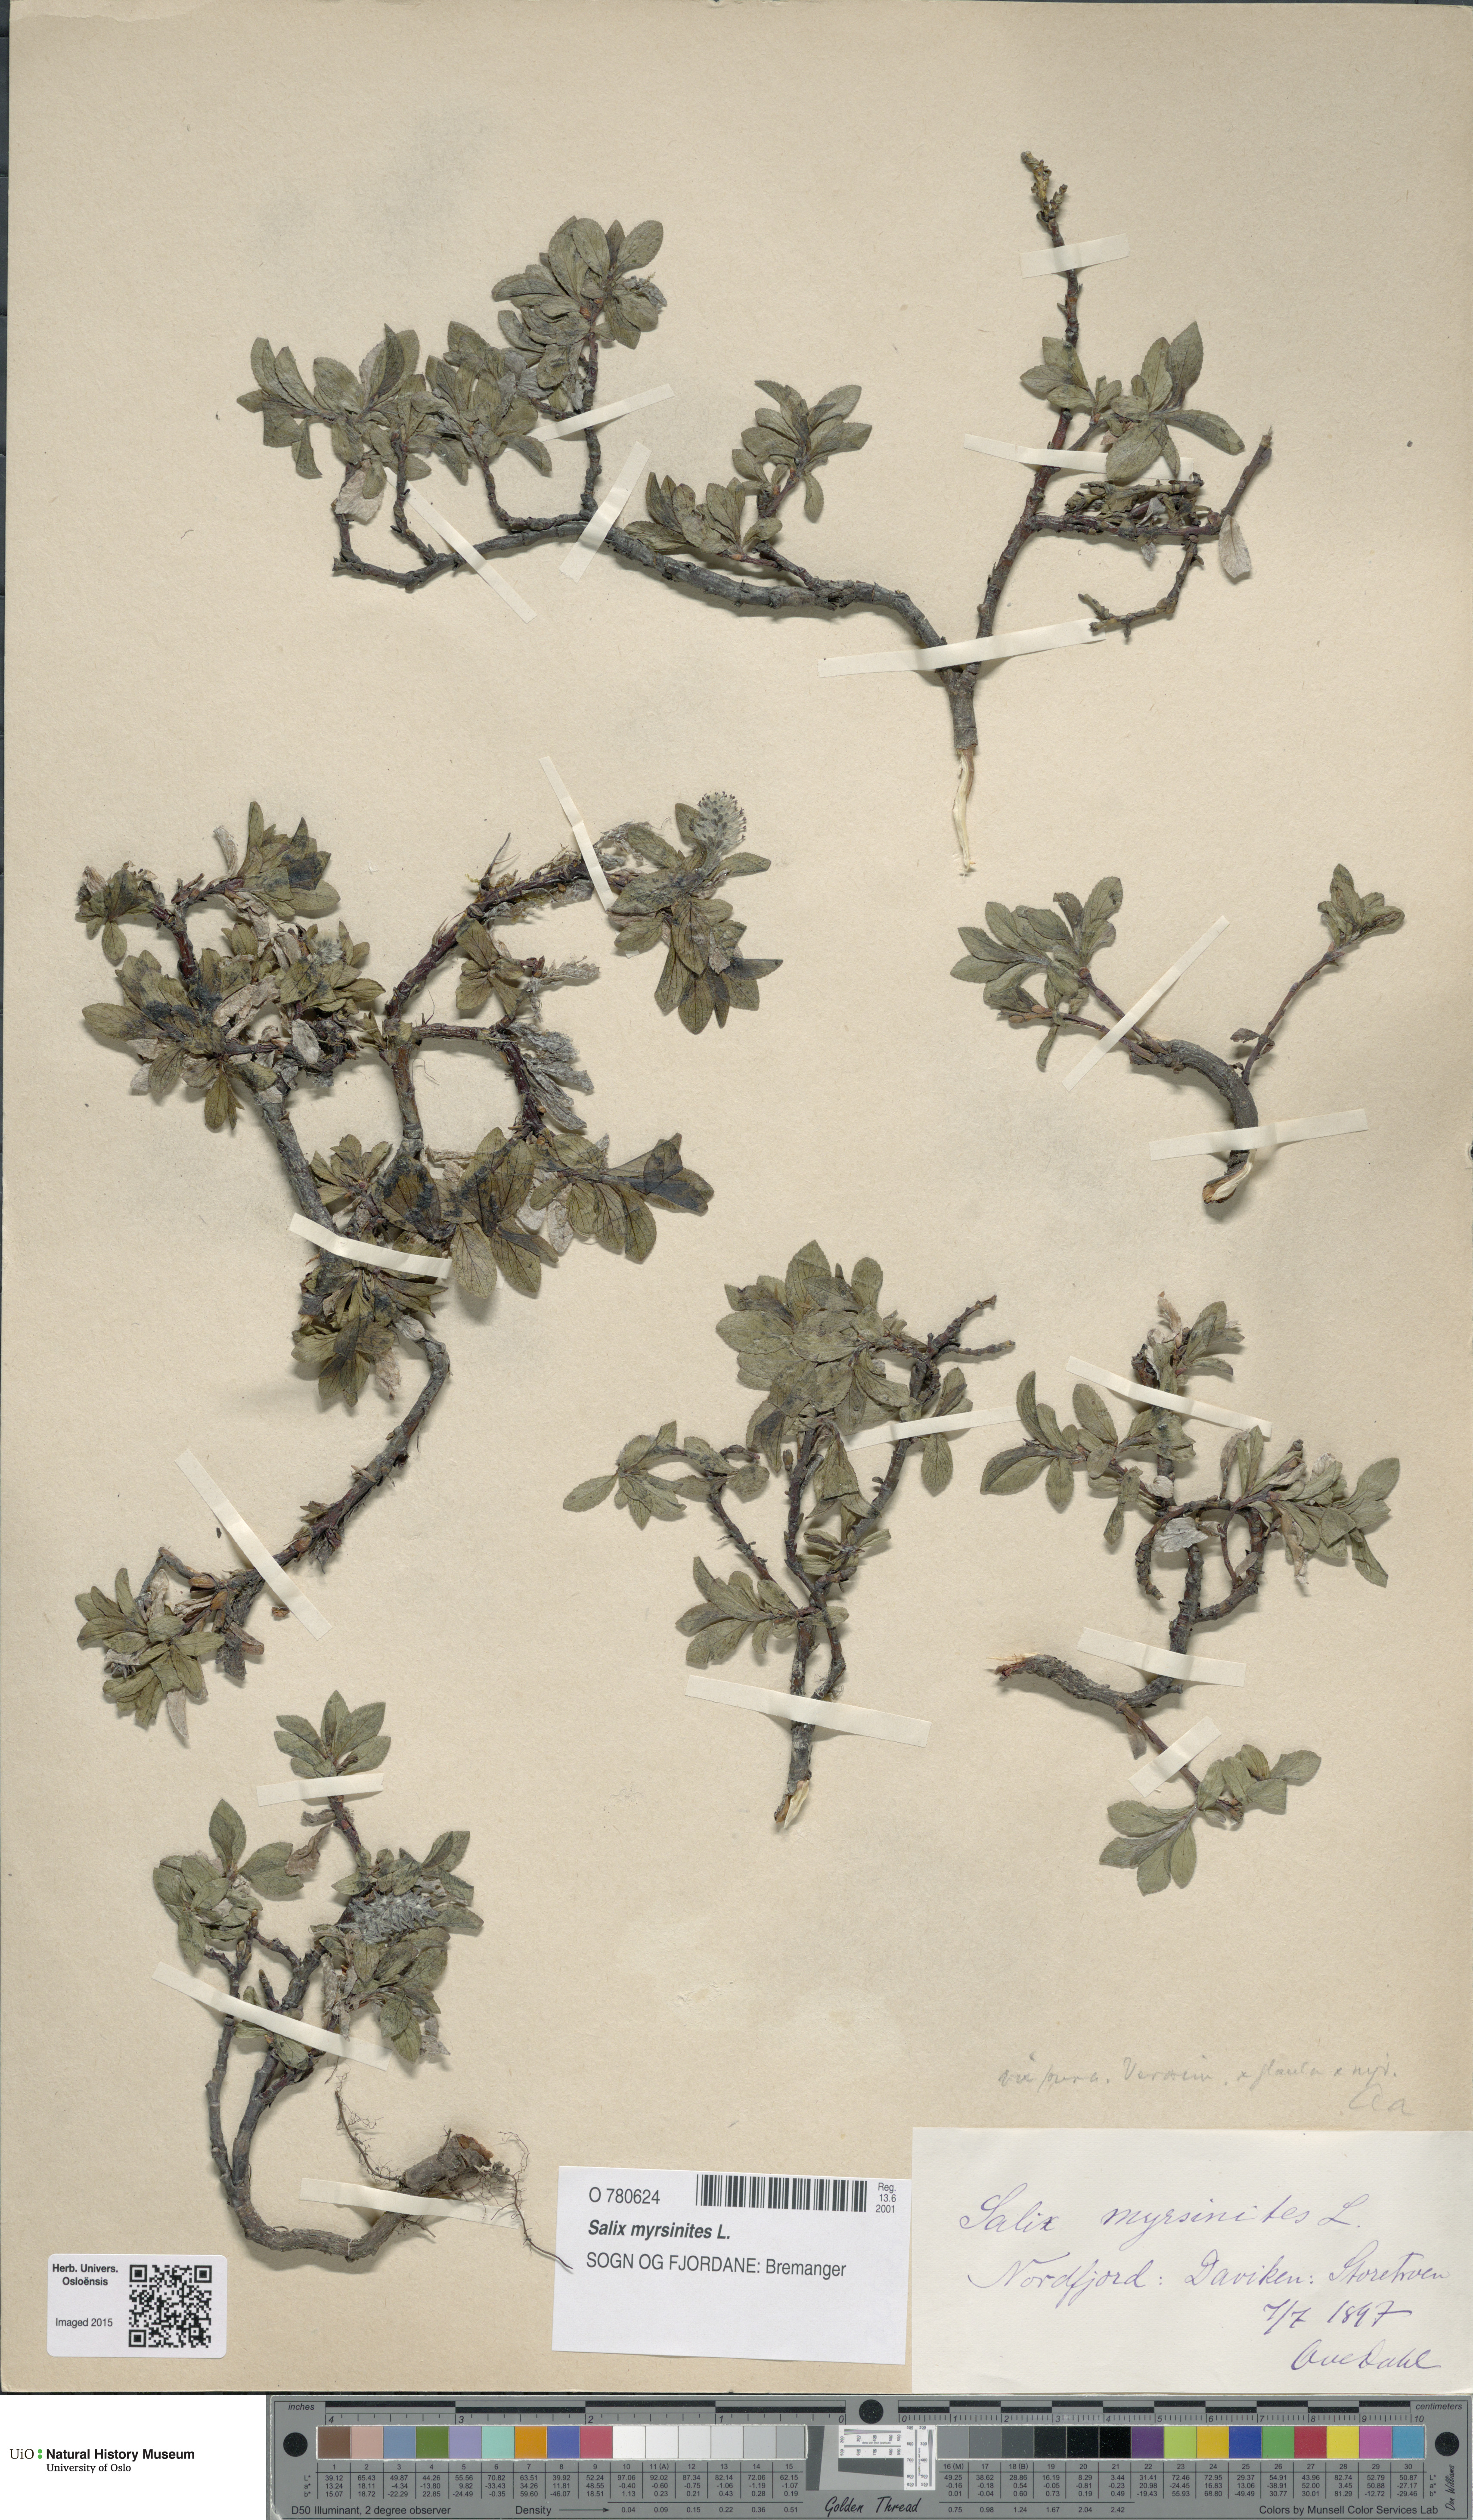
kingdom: Plantae
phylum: Tracheophyta
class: Magnoliopsida
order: Malpighiales
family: Salicaceae
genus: Salix
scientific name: Salix myrsinites
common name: Myrtle willow
